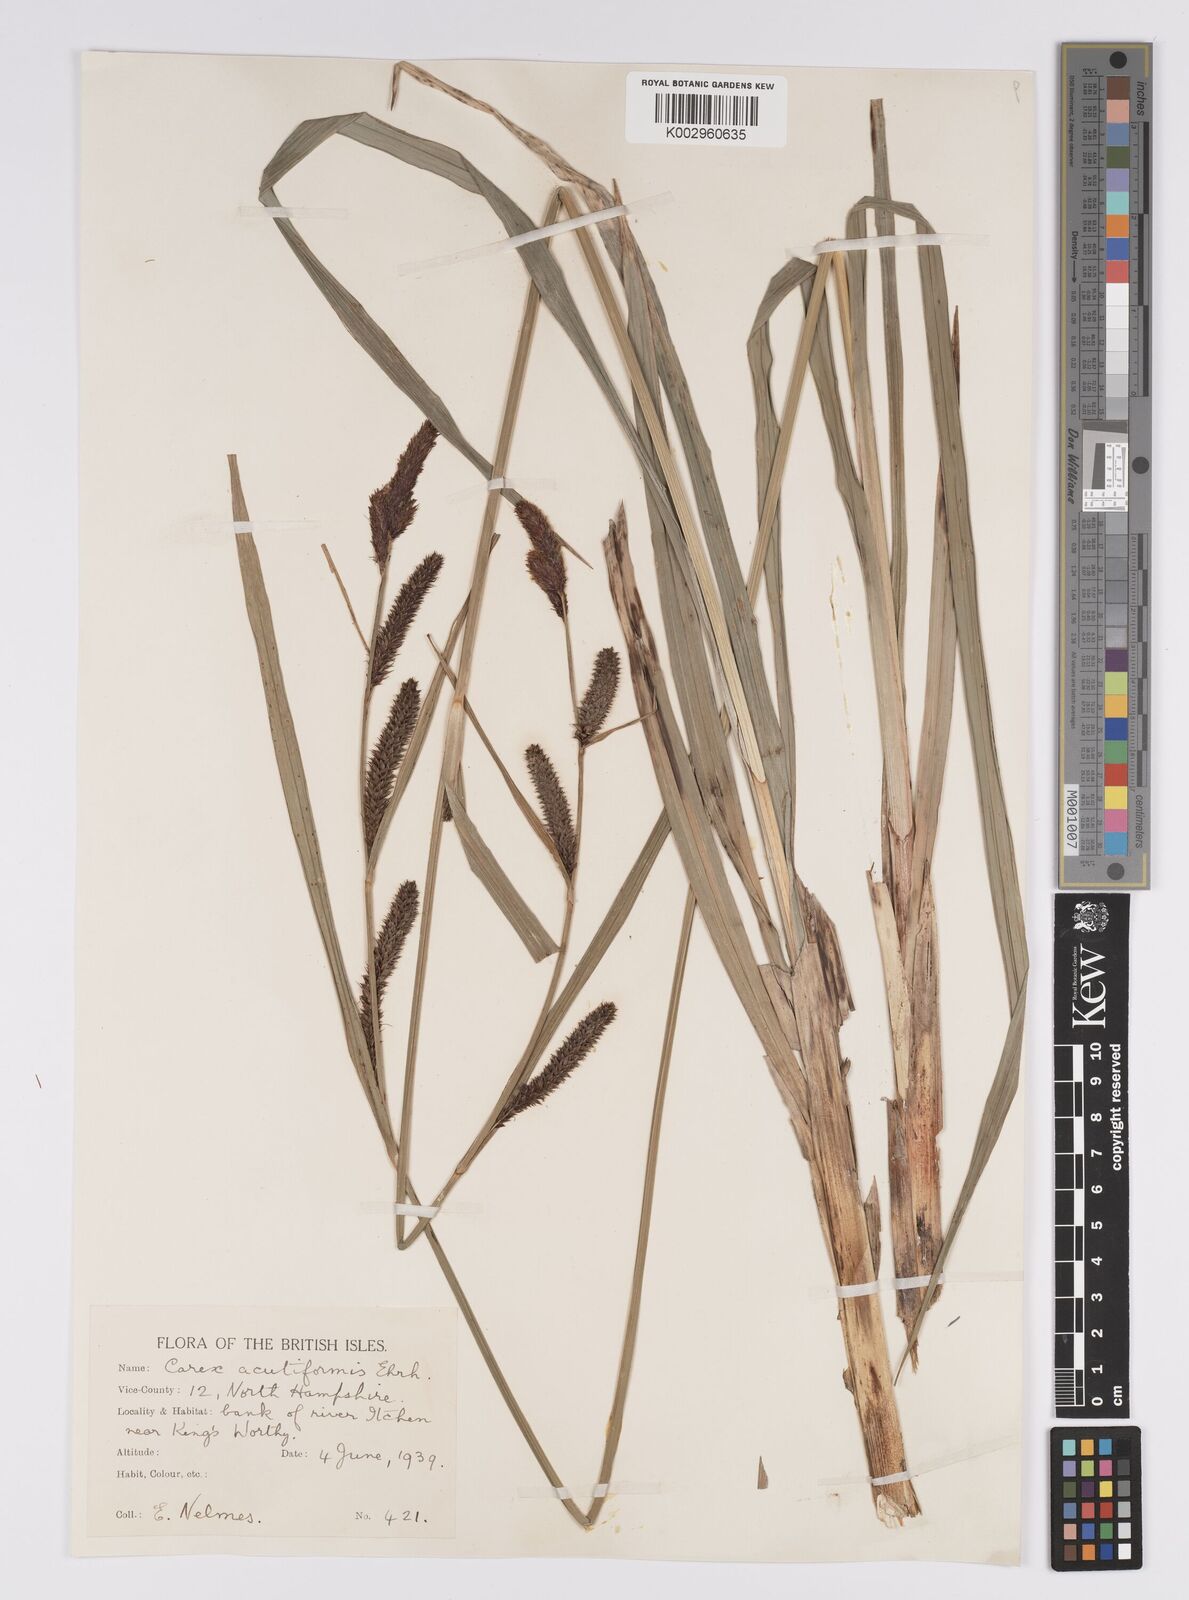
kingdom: Plantae
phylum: Tracheophyta
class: Liliopsida
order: Poales
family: Cyperaceae
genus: Carex
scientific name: Carex acutiformis
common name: Lesser pond-sedge
